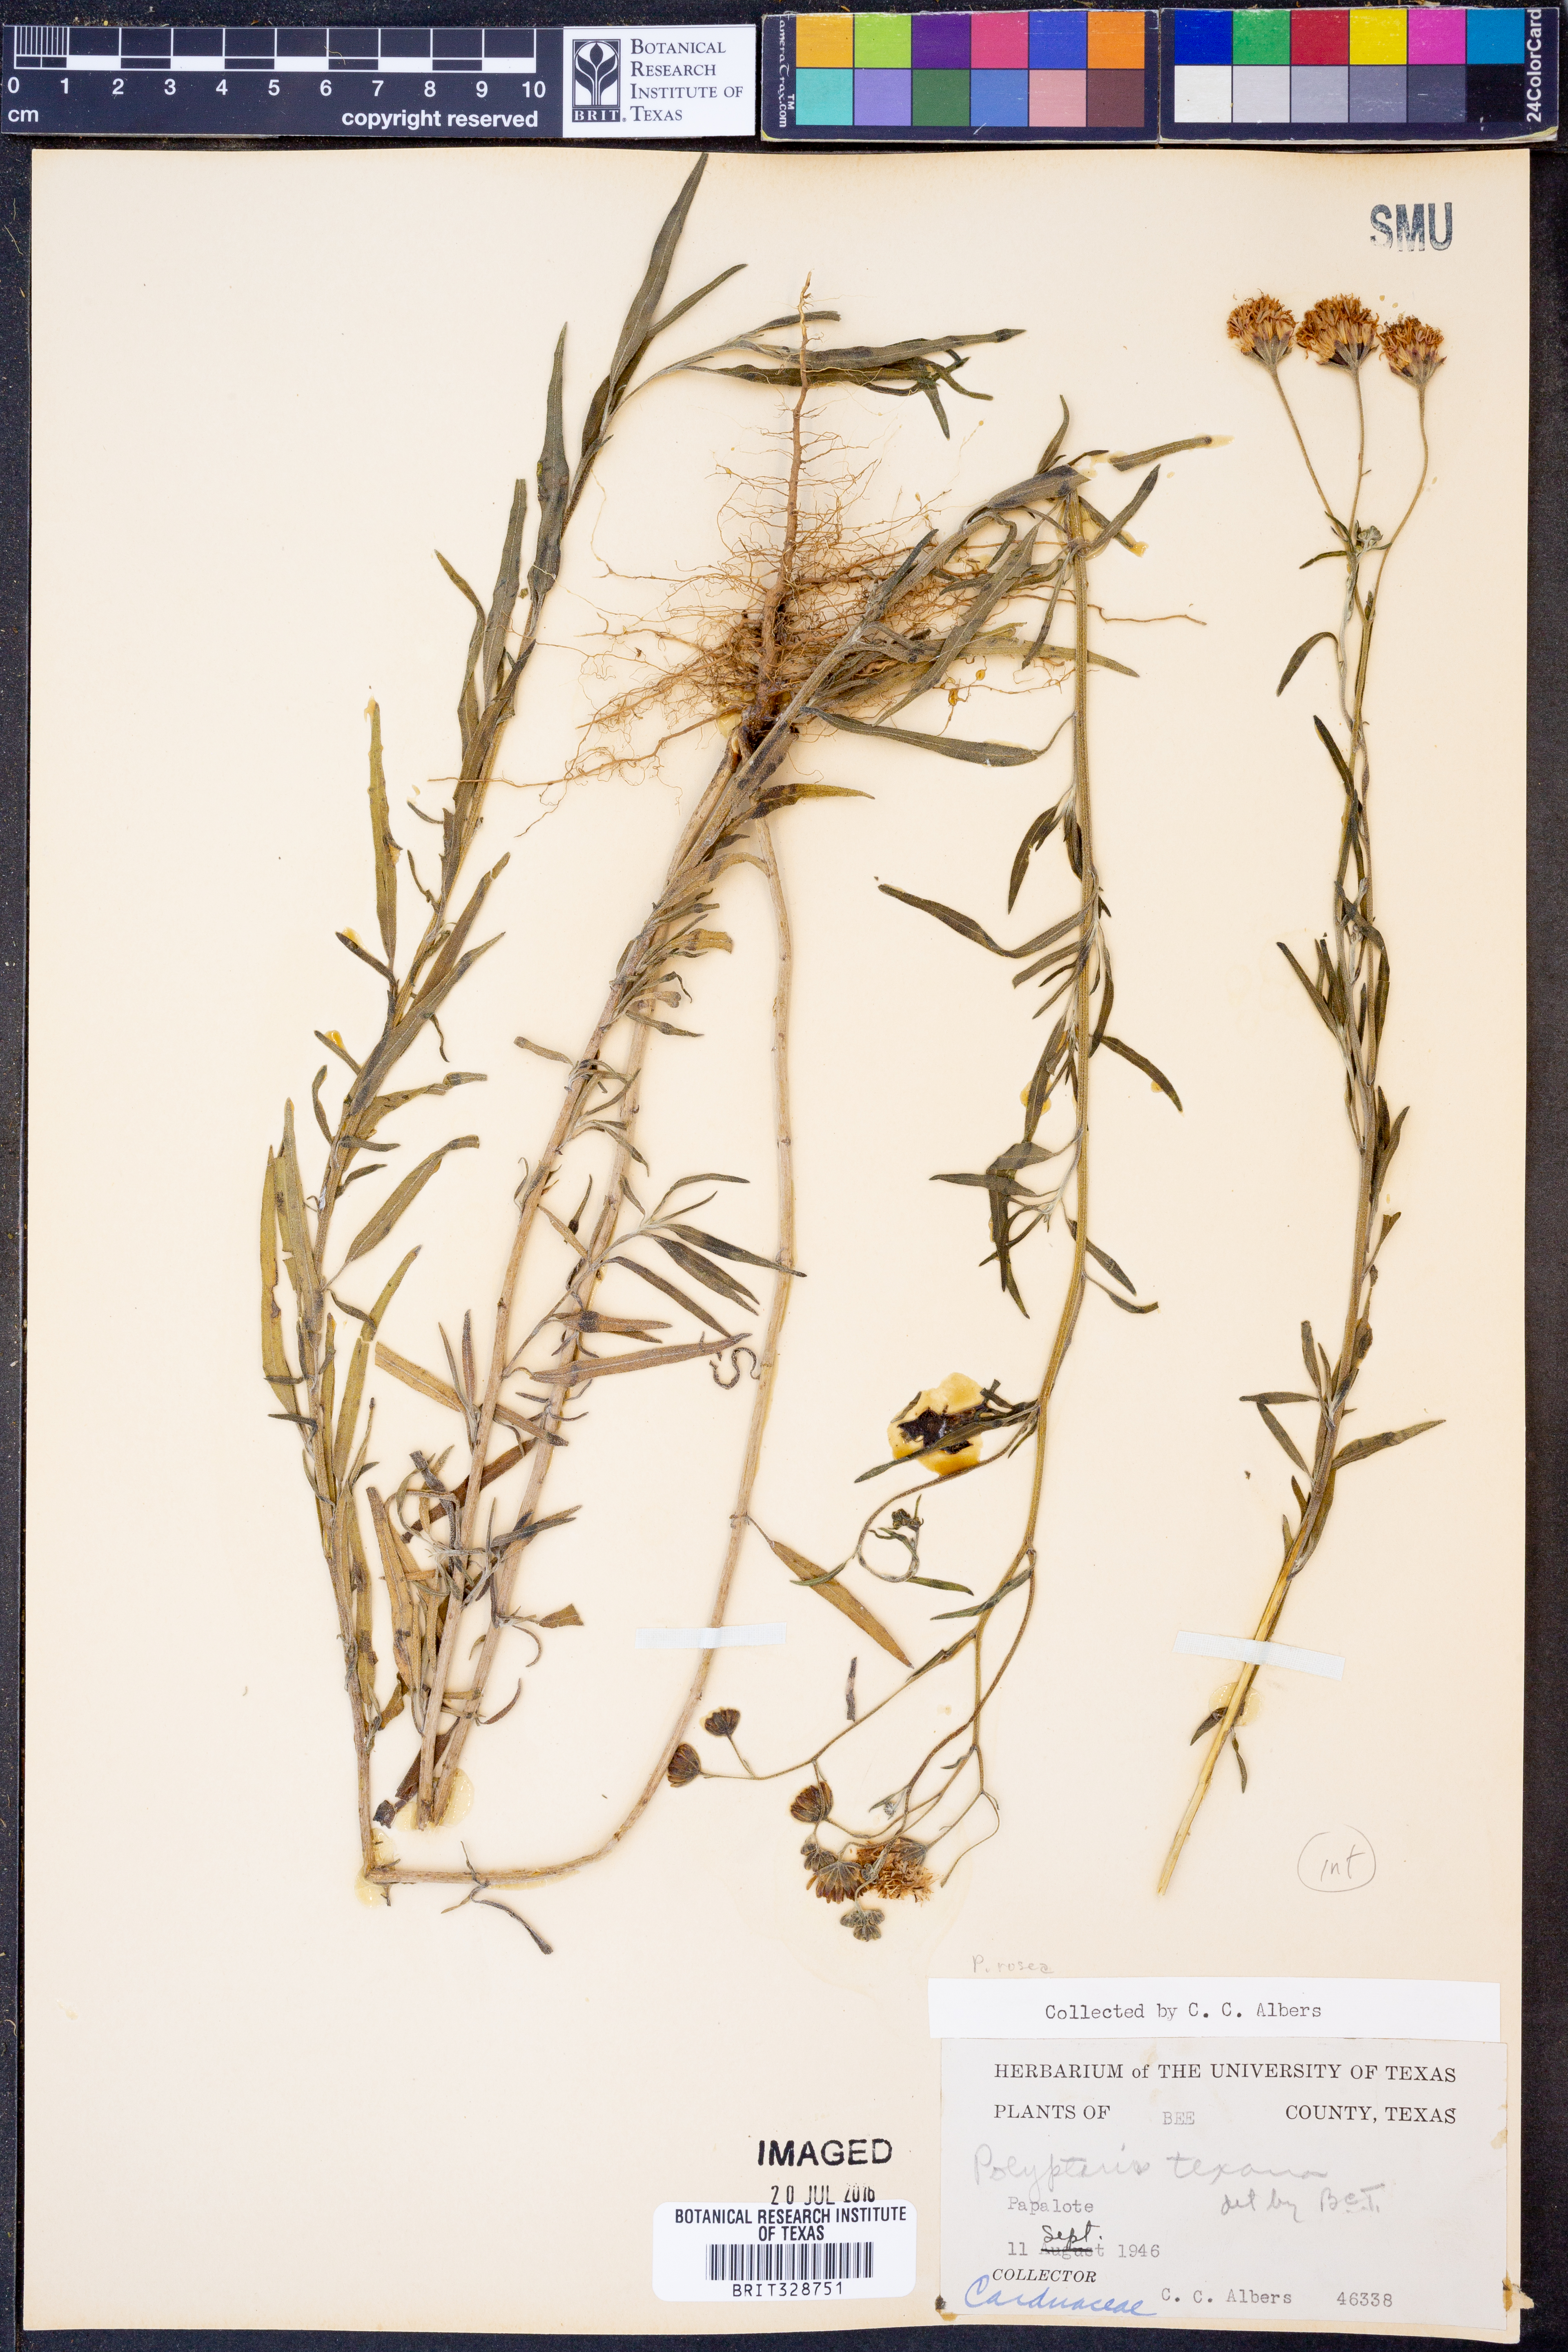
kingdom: Plantae
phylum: Tracheophyta
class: Magnoliopsida
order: Asterales
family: Asteraceae
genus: Palafoxia
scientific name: Palafoxia texana
